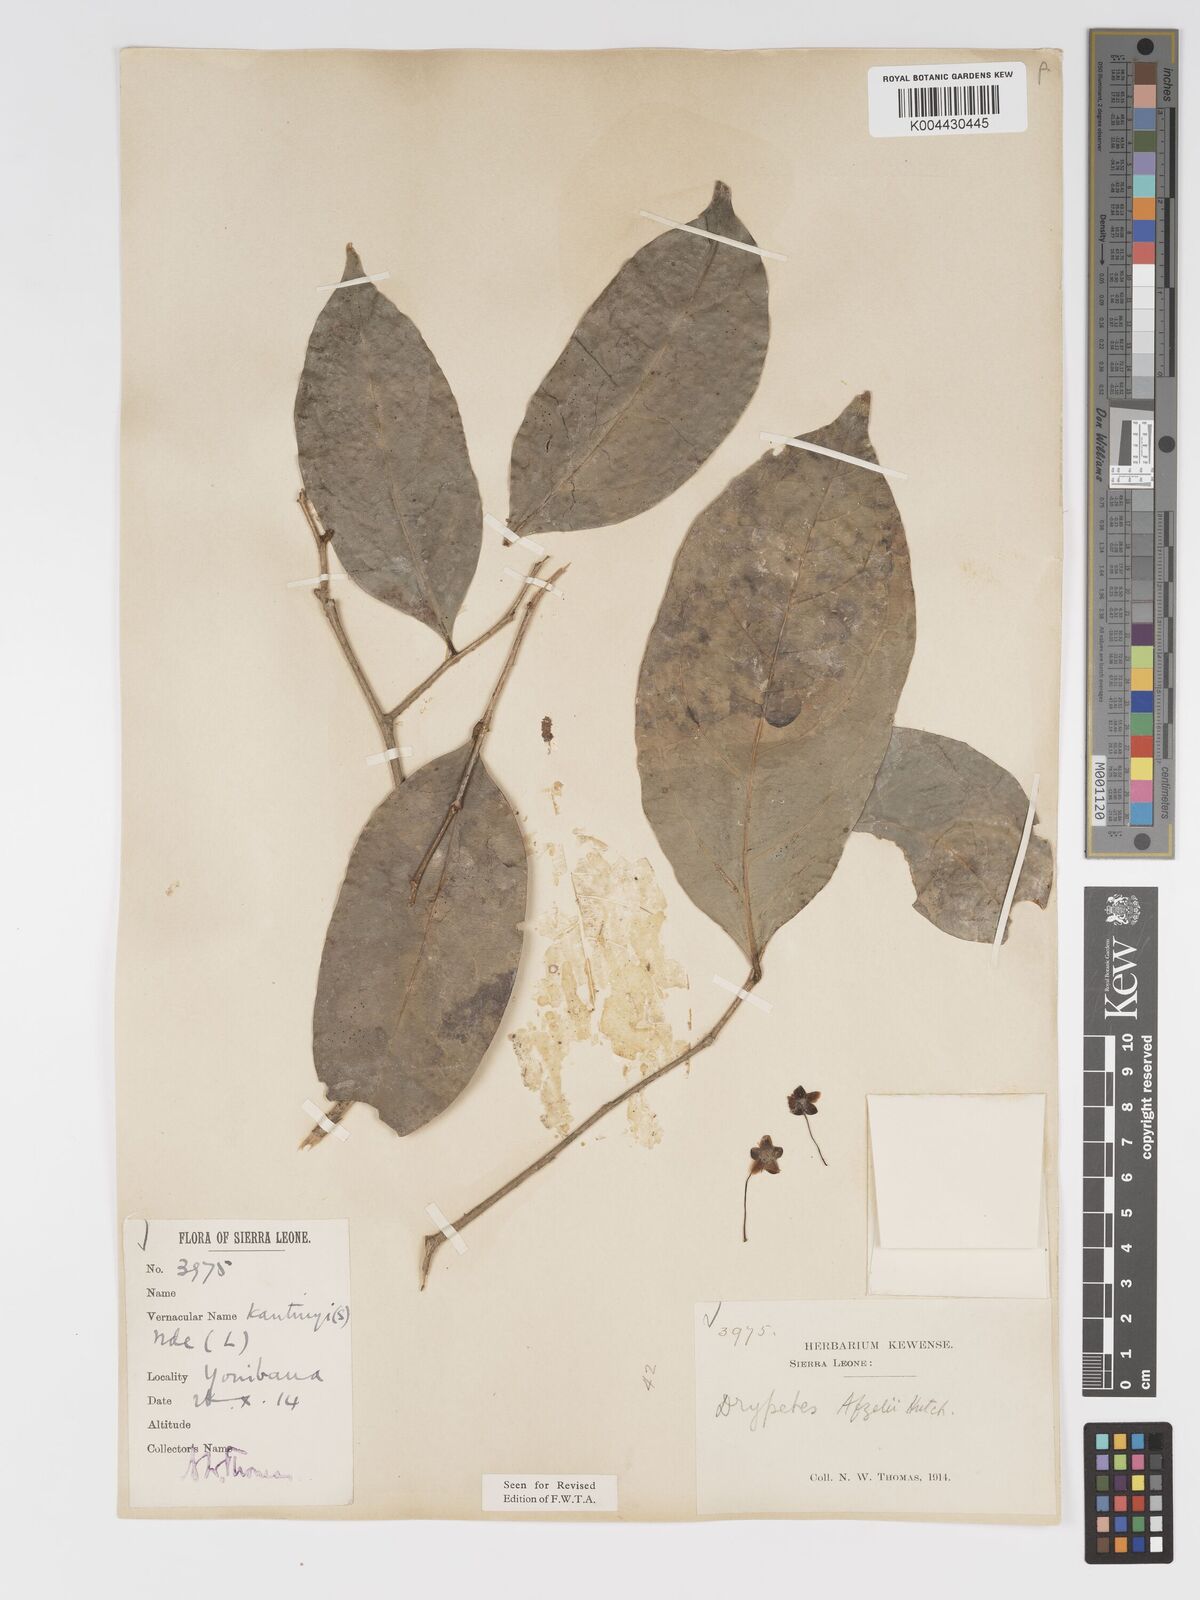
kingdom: Plantae
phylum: Tracheophyta
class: Magnoliopsida
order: Malpighiales
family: Putranjivaceae
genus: Drypetes
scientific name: Drypetes afzelii
